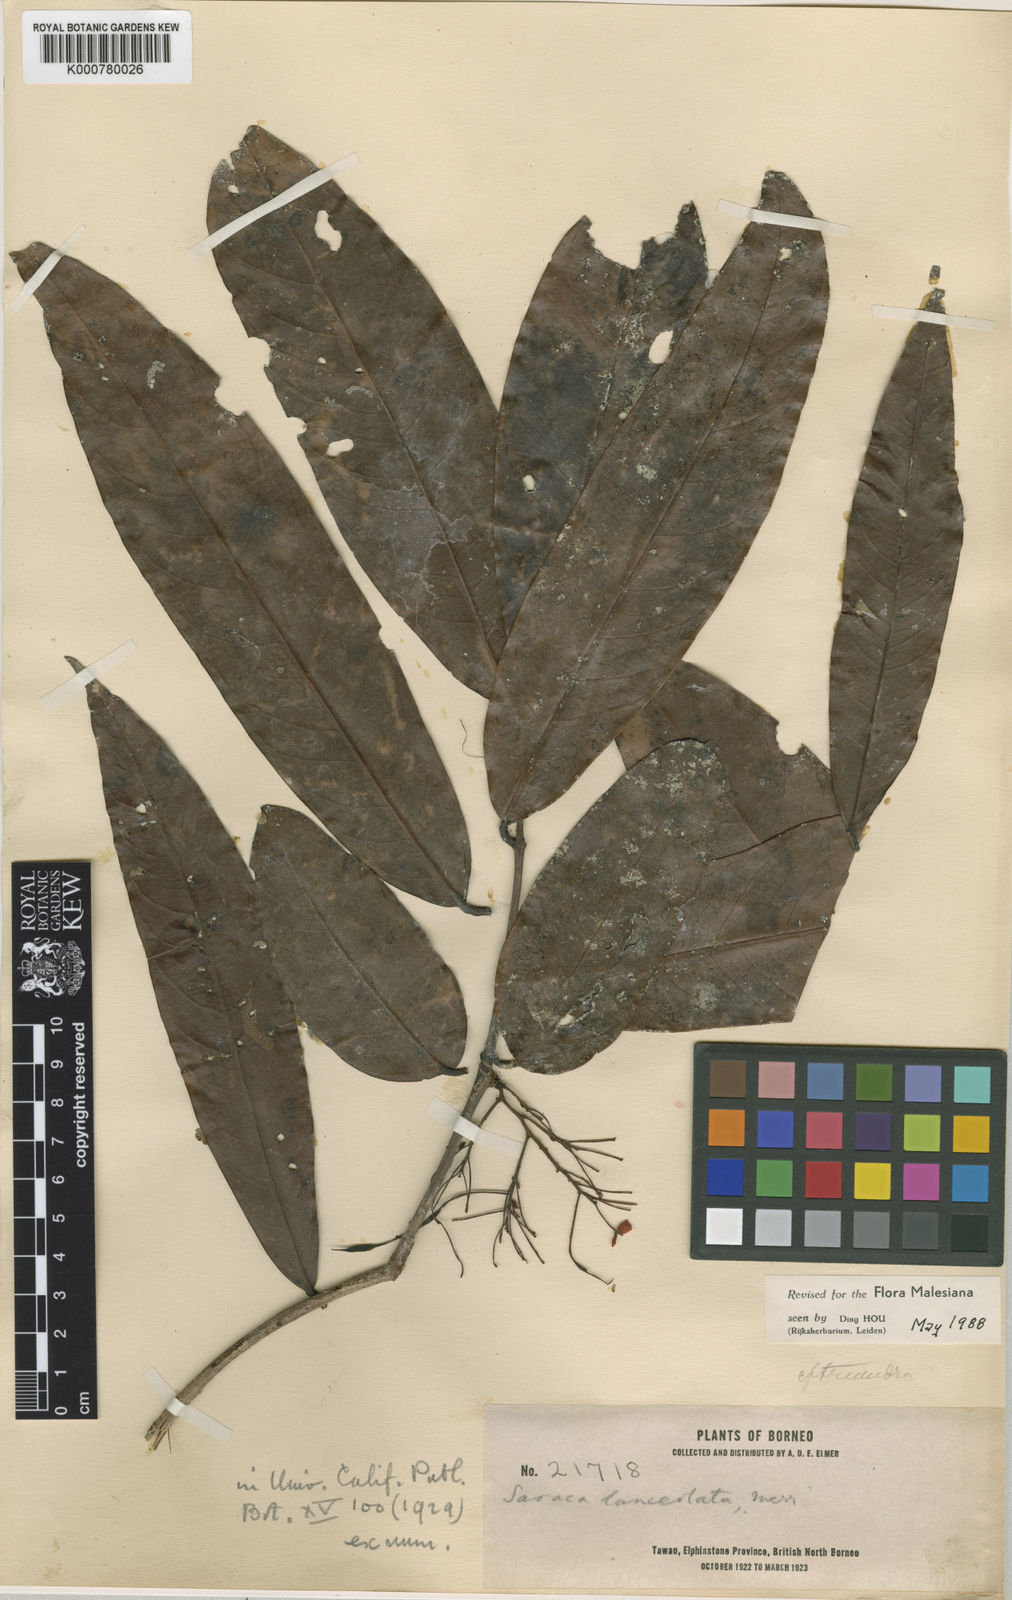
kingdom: Plantae
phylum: Tracheophyta
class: Magnoliopsida
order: Fabales
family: Fabaceae
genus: Saraca
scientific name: Saraca declinata
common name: Red saraca
